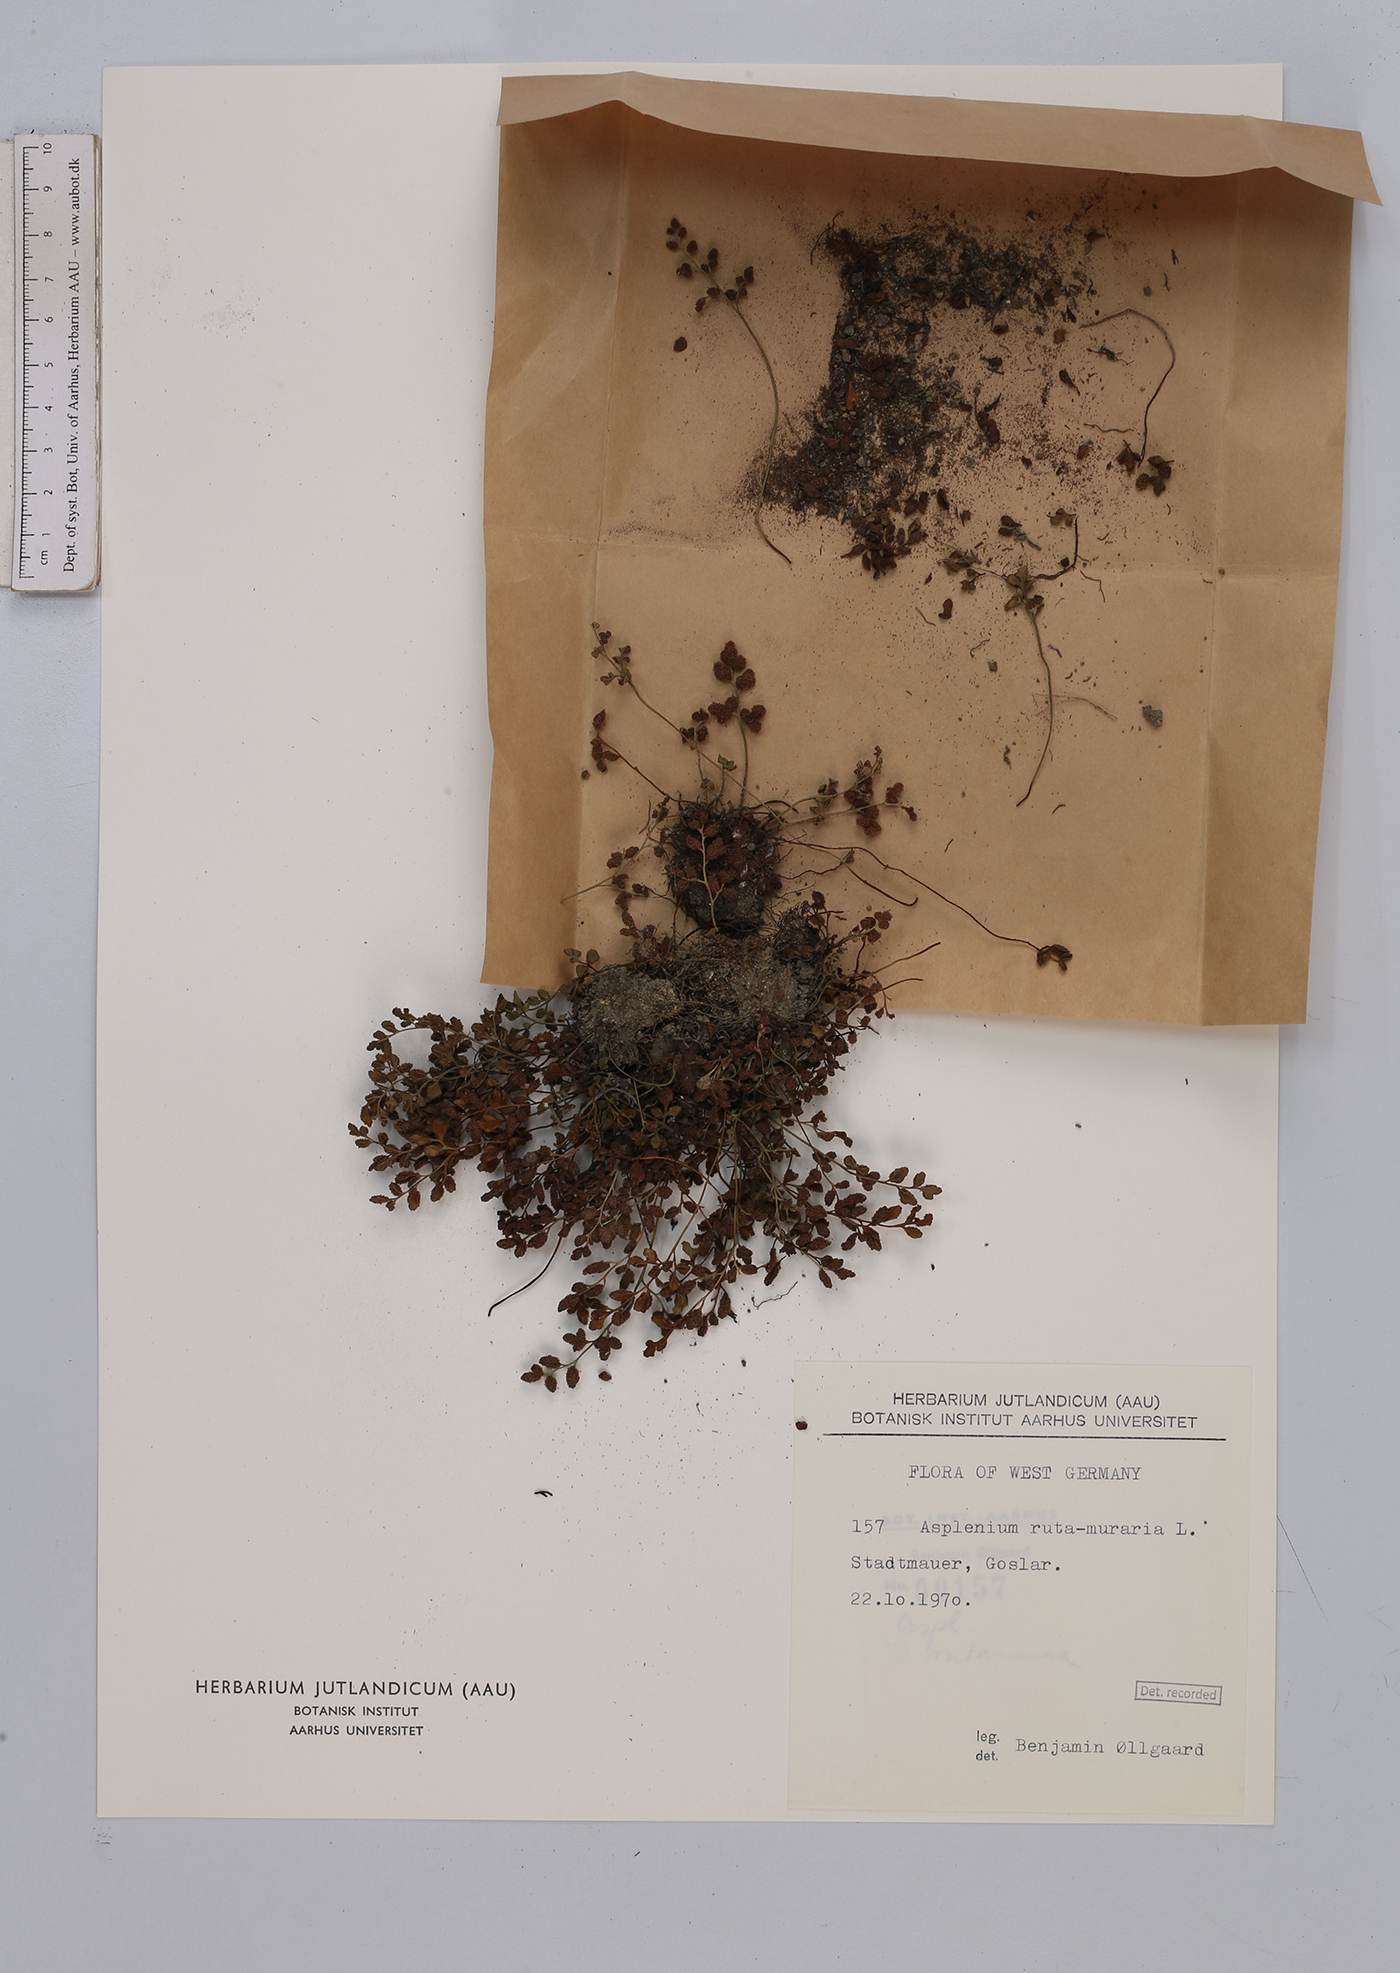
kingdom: Plantae
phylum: Tracheophyta
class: Polypodiopsida
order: Polypodiales
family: Aspleniaceae
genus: Asplenium
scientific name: Asplenium ruta-muraria
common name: Wall-rue
